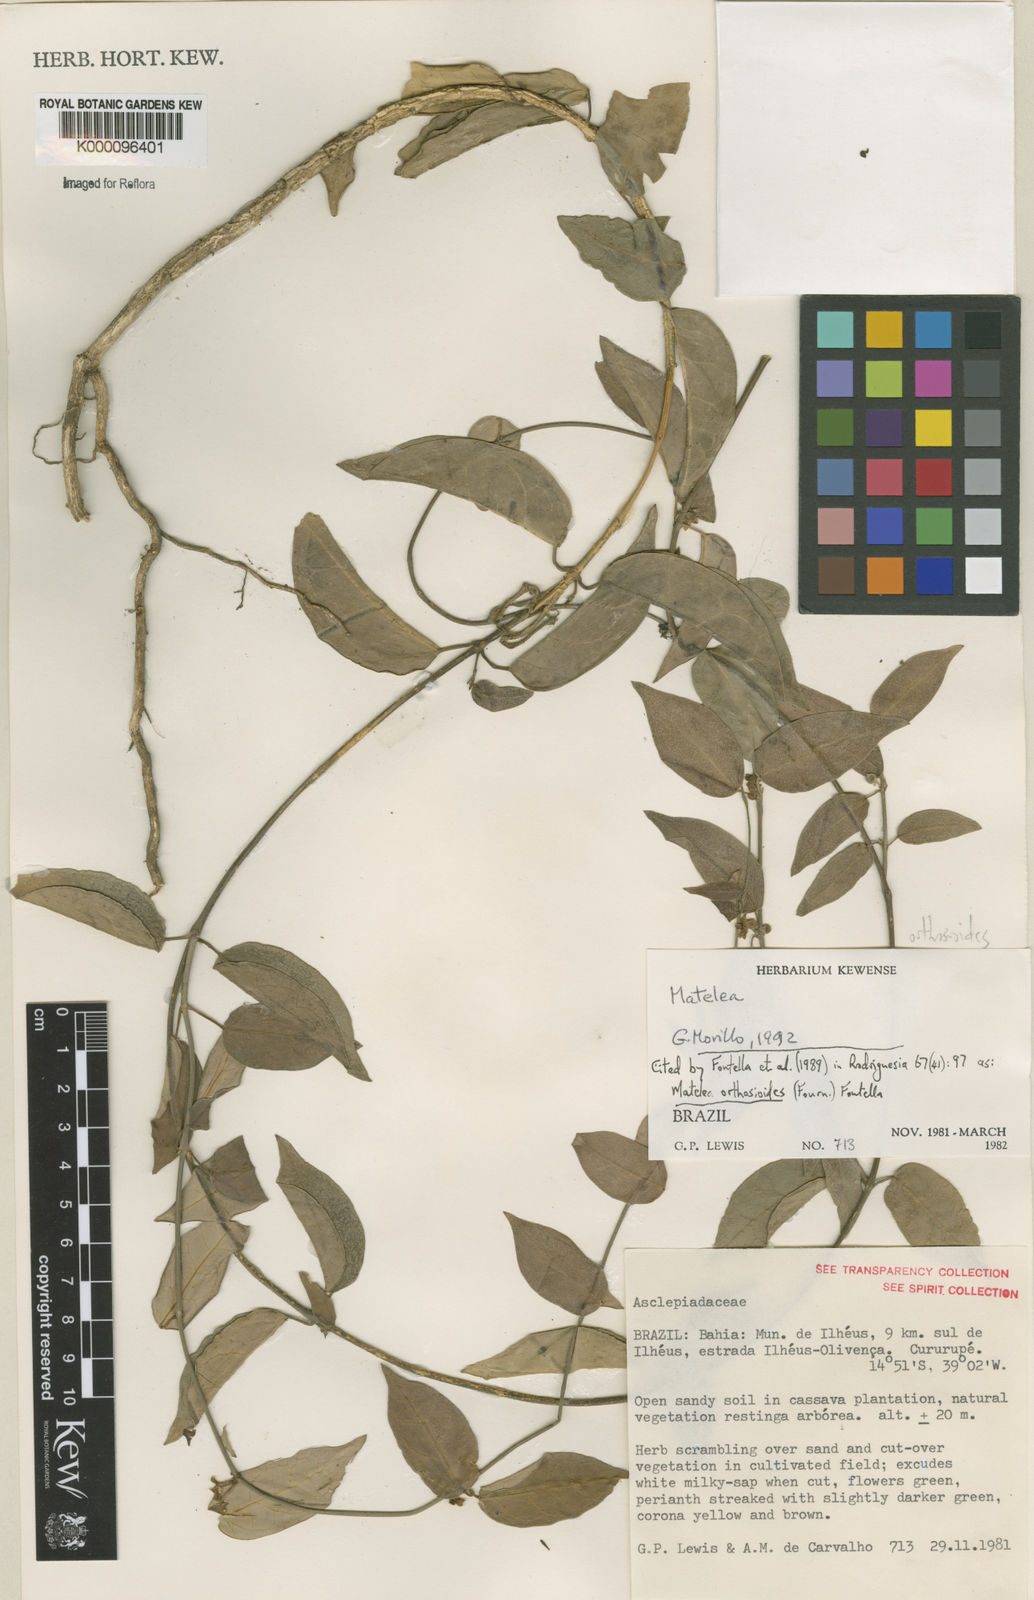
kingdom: Plantae
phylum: Tracheophyta
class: Magnoliopsida
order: Gentianales
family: Apocynaceae
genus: Matelea
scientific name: Matelea orthosioides
